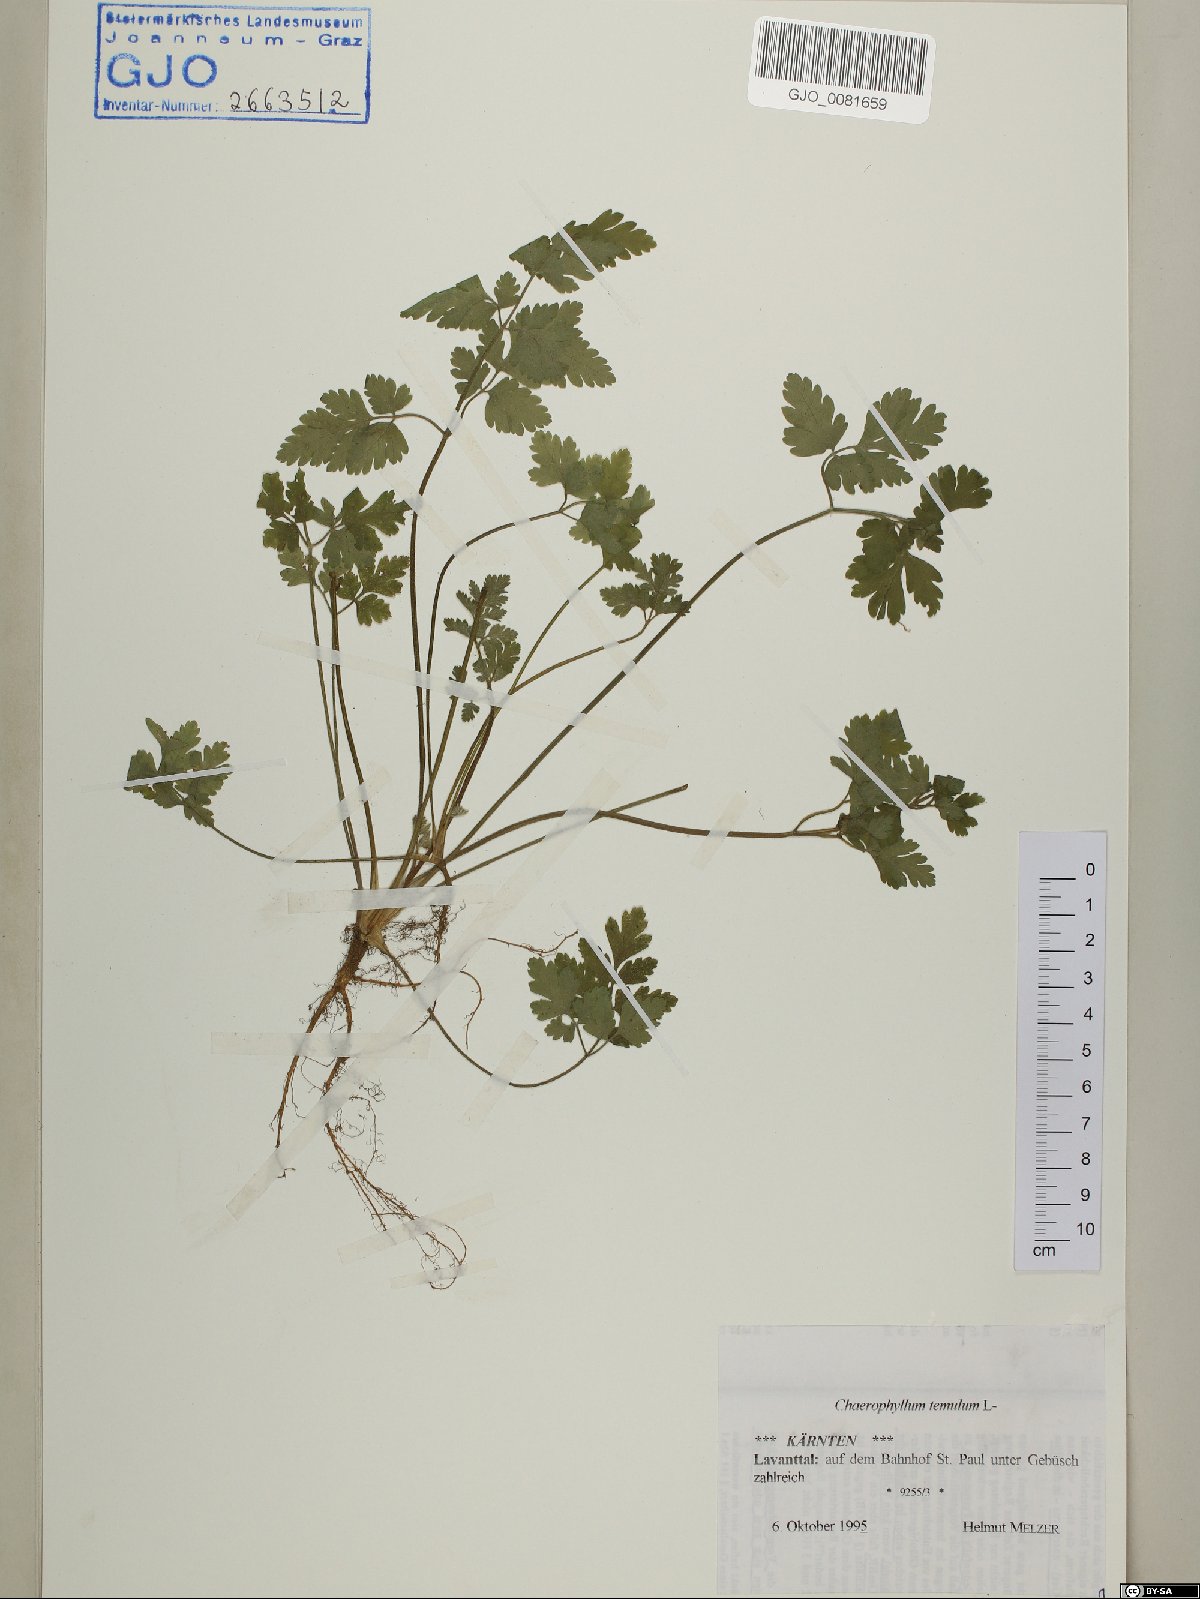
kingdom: Plantae
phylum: Tracheophyta
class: Magnoliopsida
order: Apiales
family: Apiaceae
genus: Chaerophyllum
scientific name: Chaerophyllum temulum
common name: Rough chervil
